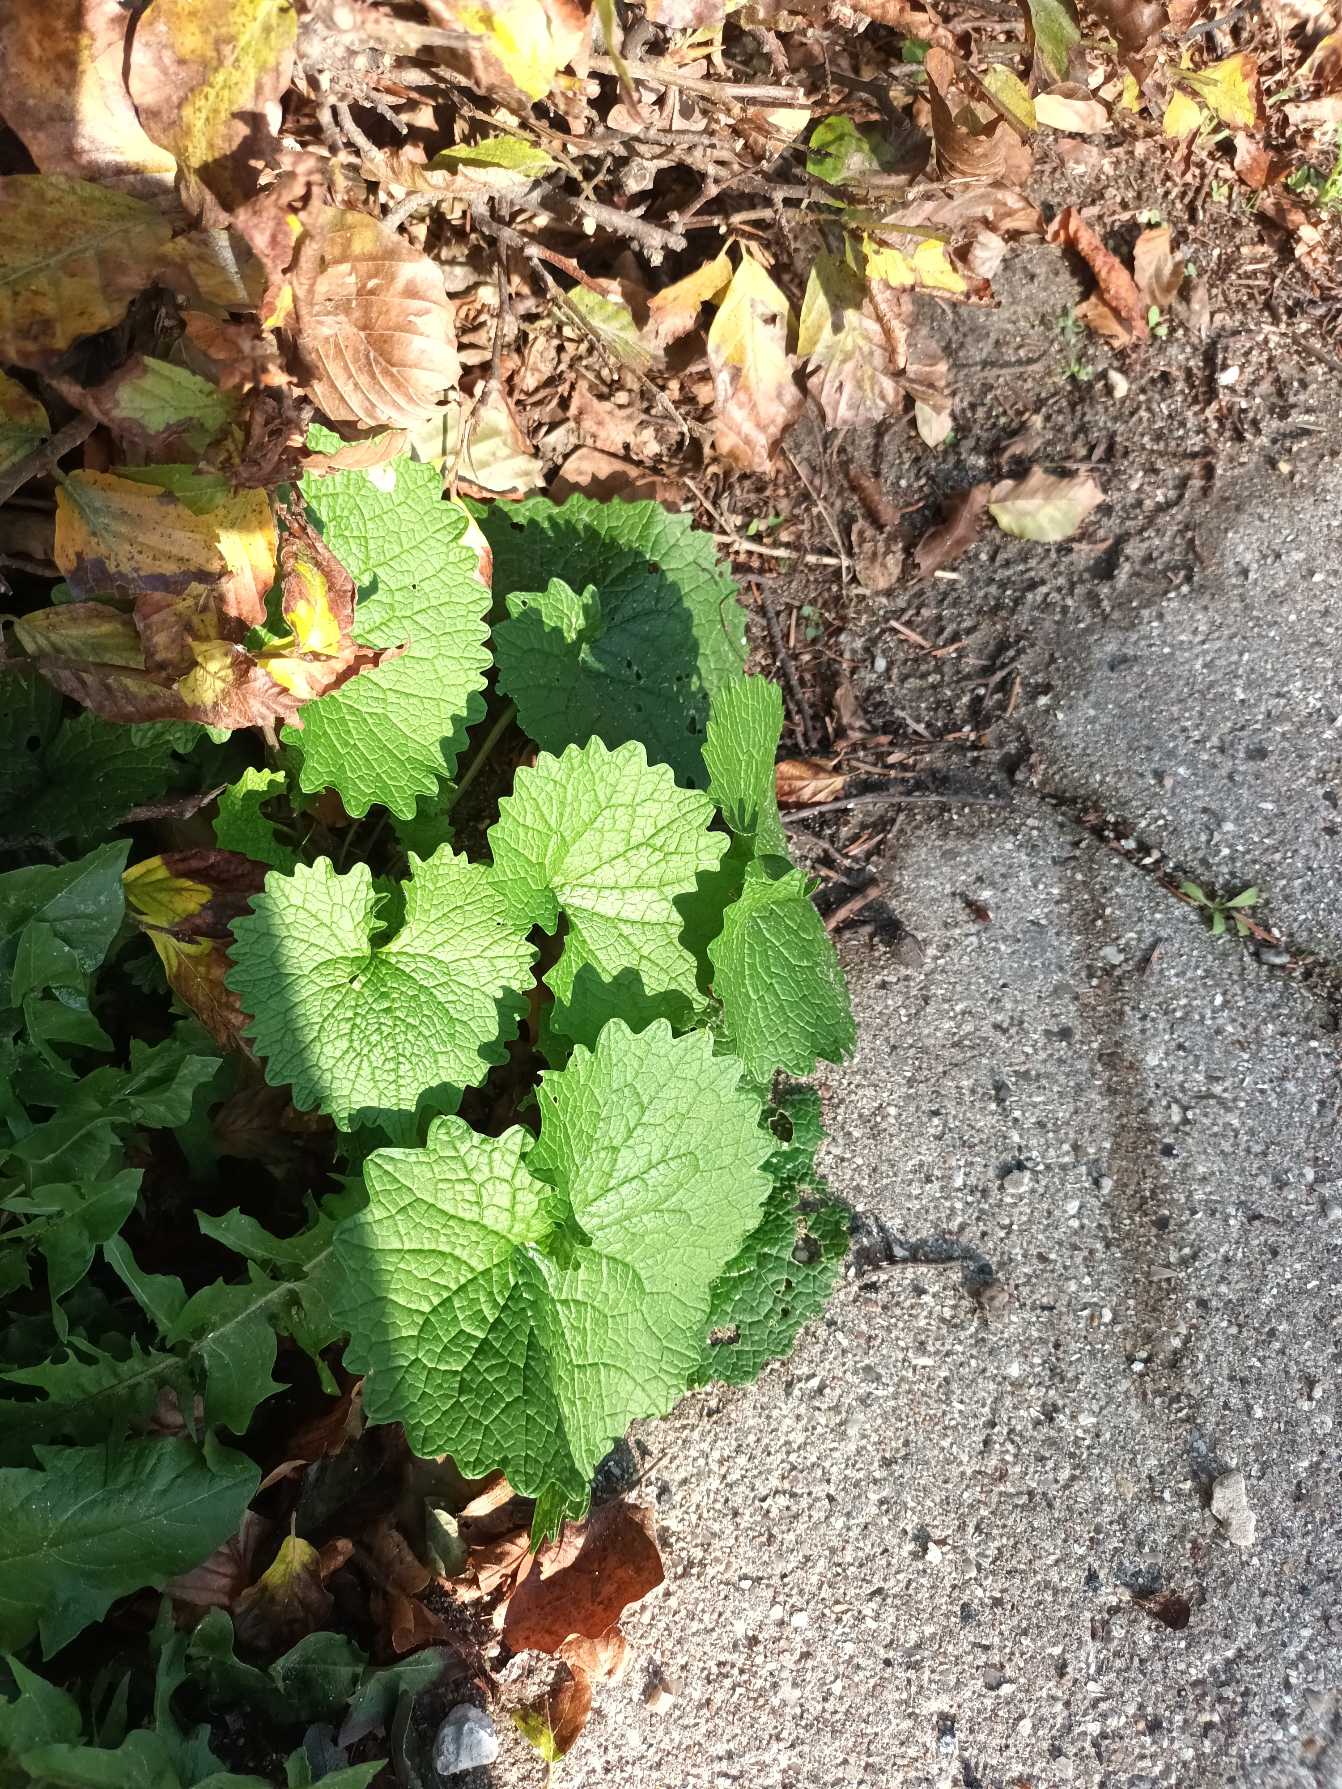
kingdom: Plantae
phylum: Tracheophyta
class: Magnoliopsida
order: Brassicales
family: Brassicaceae
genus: Alliaria
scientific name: Alliaria petiolata
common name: Løgkarse
